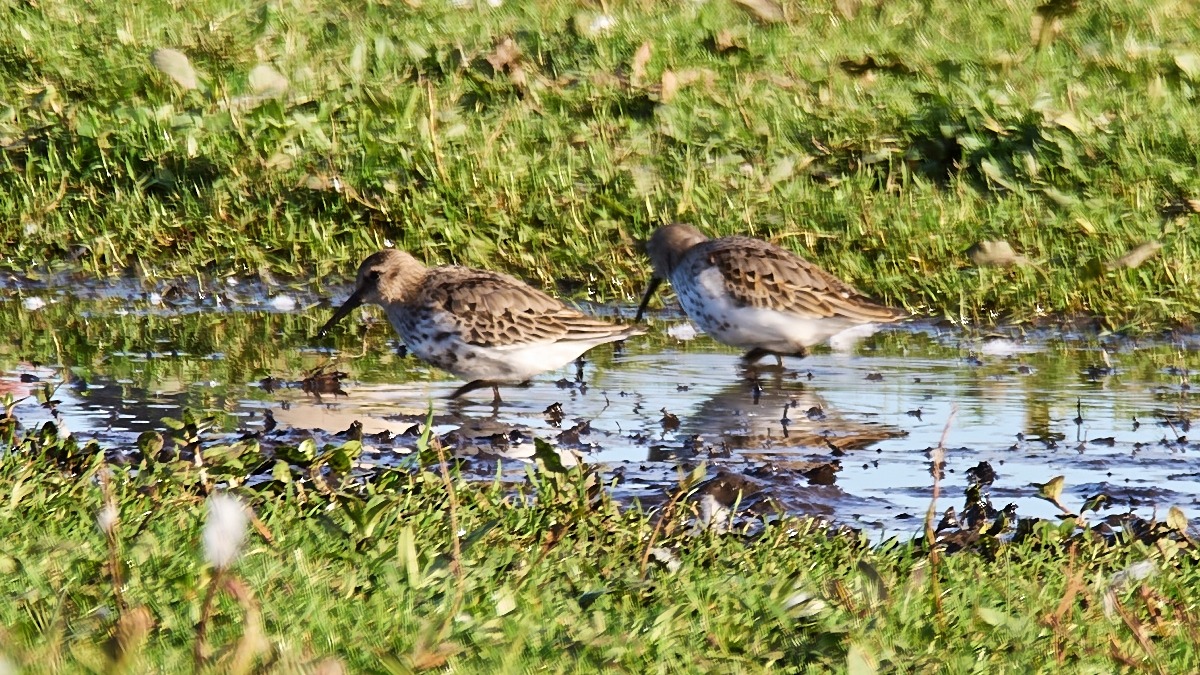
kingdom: Animalia
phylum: Chordata
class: Aves
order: Charadriiformes
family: Scolopacidae
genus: Calidris
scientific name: Calidris alpina
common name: Almindelig ryle
